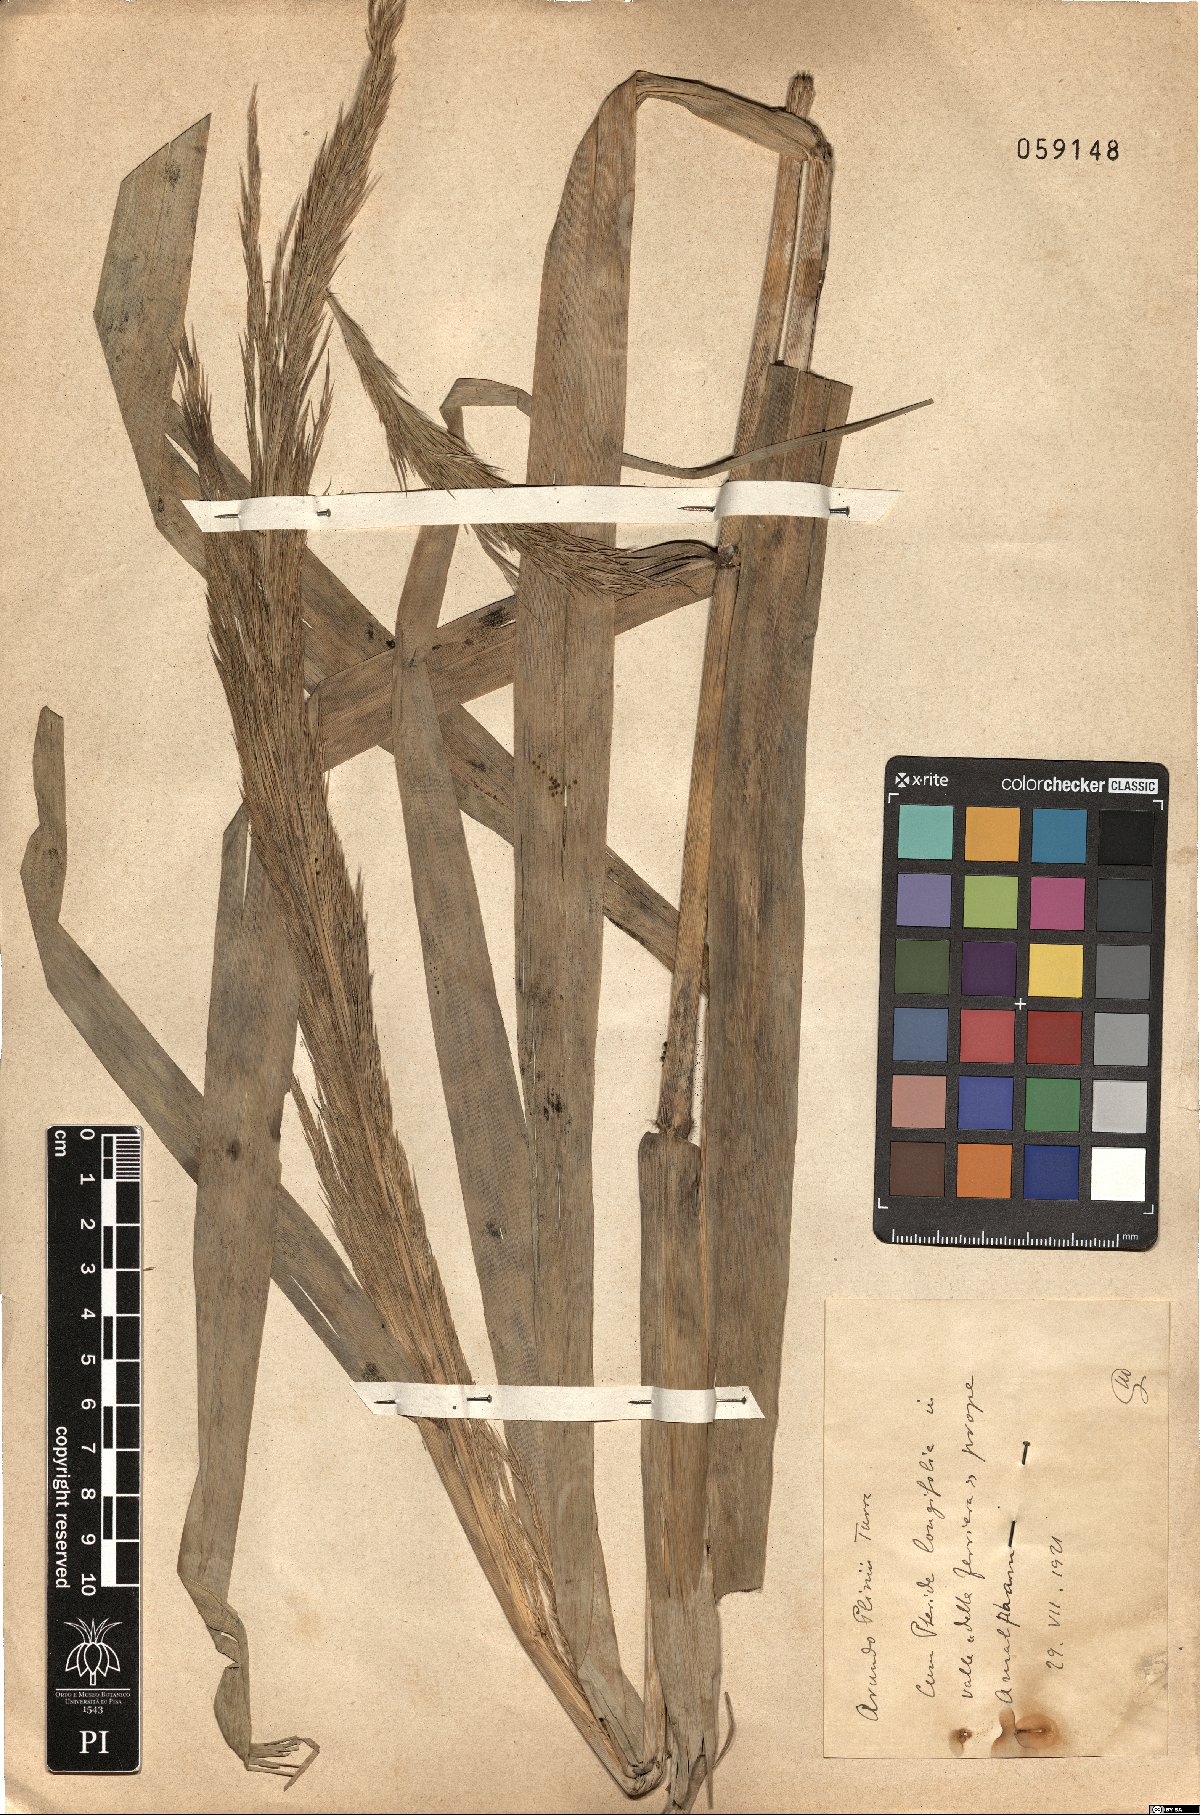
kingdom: Plantae
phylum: Tracheophyta
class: Liliopsida
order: Poales
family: Poaceae
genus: Arundo
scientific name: Arundo plinii
